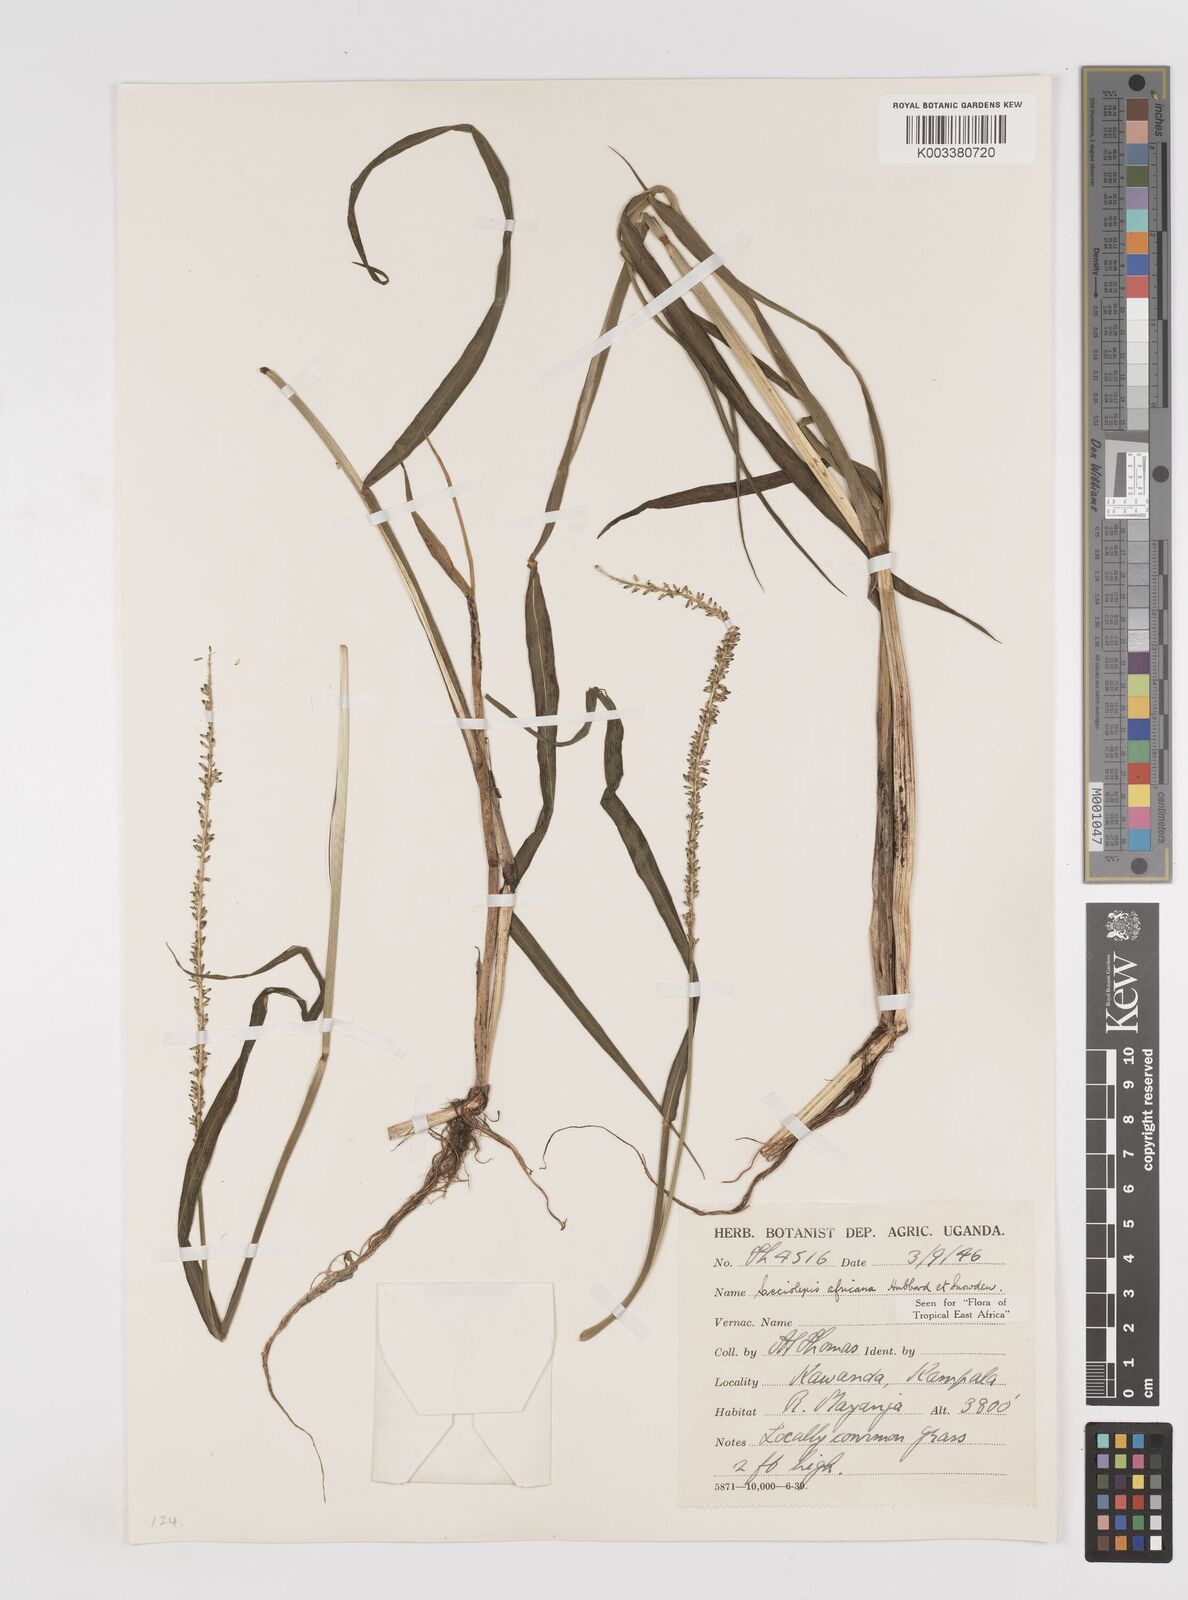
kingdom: Plantae
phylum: Tracheophyta
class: Liliopsida
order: Poales
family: Poaceae
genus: Sacciolepis
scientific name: Sacciolepis africana
